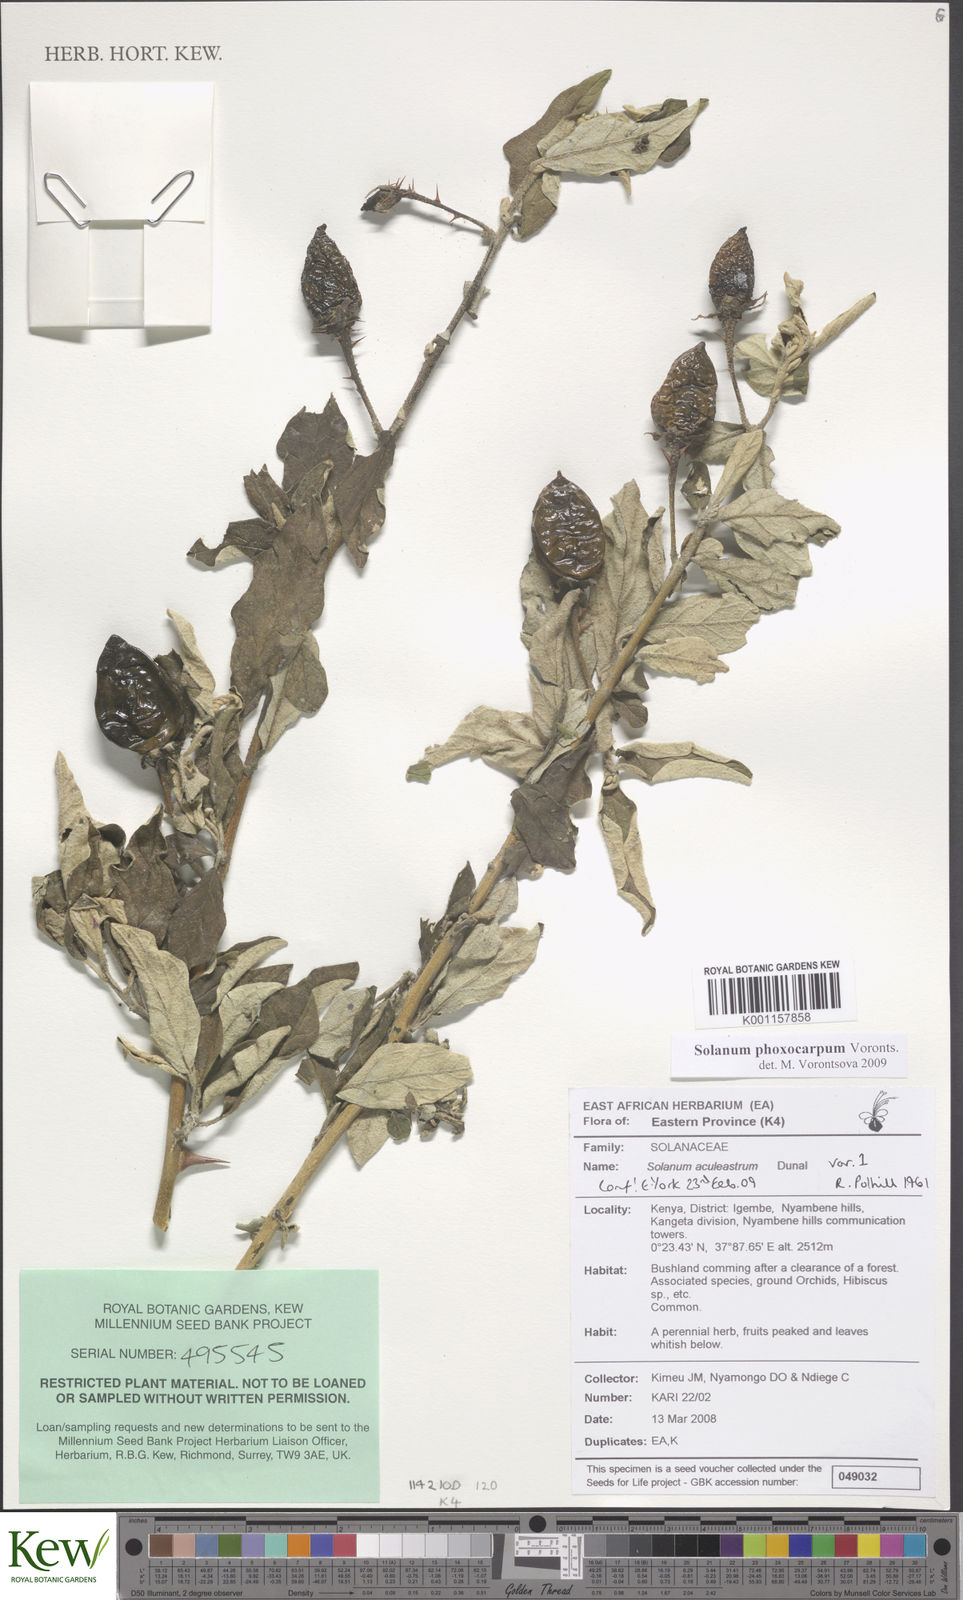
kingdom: Plantae
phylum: Tracheophyta
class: Magnoliopsida
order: Solanales
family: Solanaceae
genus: Solanum
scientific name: Solanum phoxocarpum
